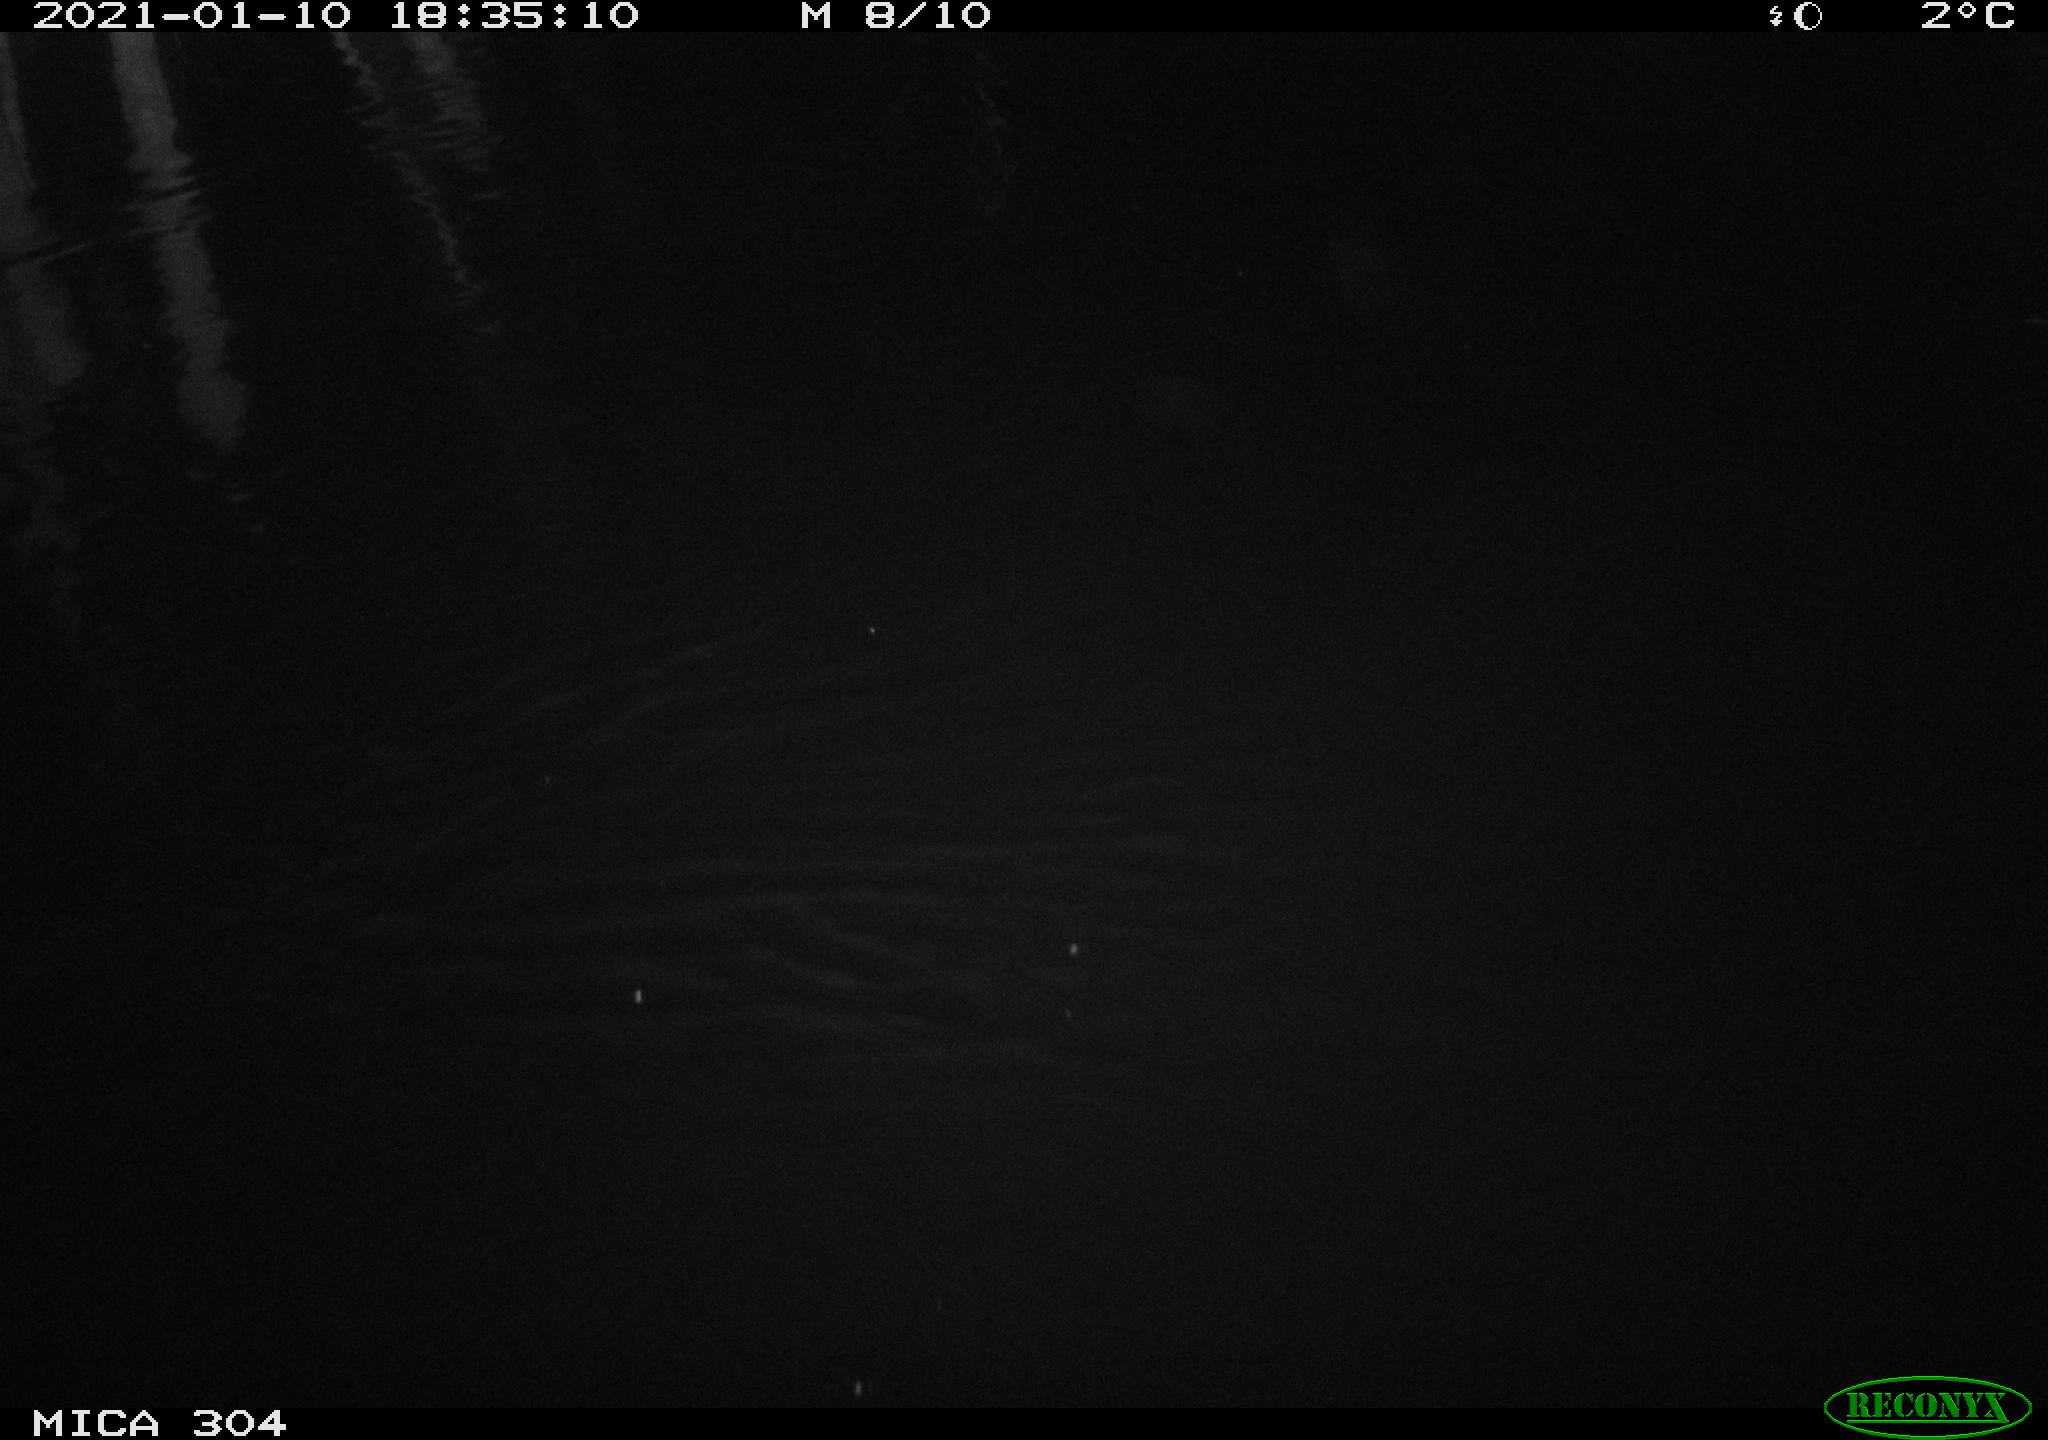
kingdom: Animalia
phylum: Chordata
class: Mammalia
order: Rodentia
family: Muridae
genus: Rattus
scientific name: Rattus norvegicus
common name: Brown rat
